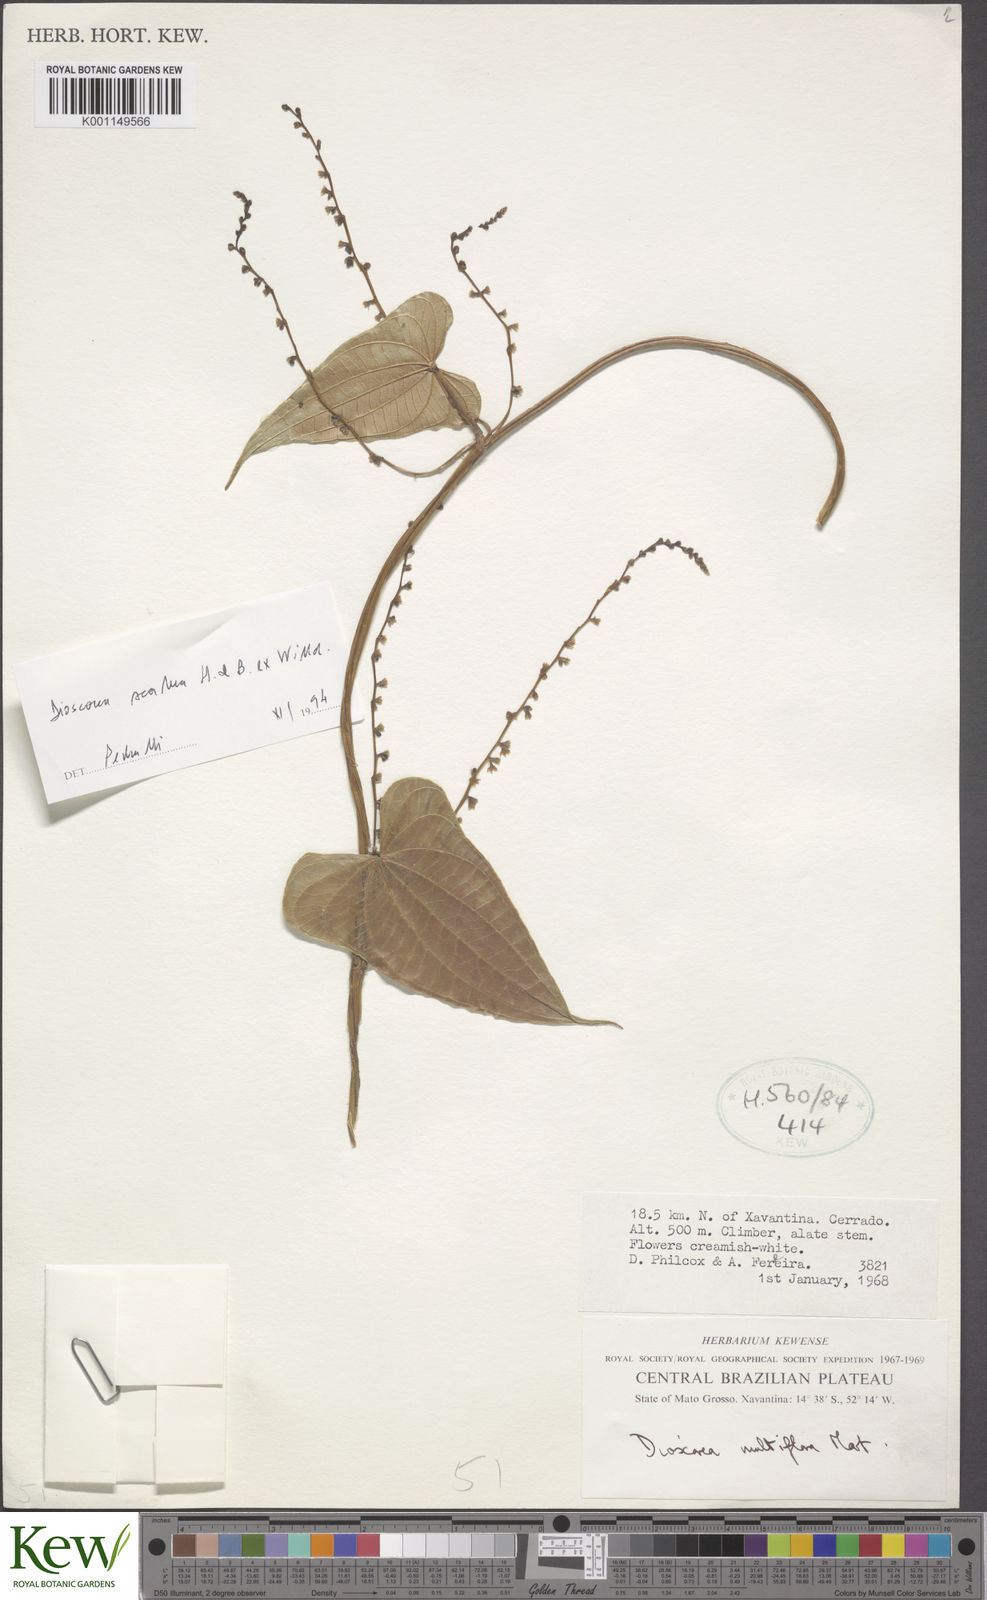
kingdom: Plantae
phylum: Tracheophyta
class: Liliopsida
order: Dioscoreales
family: Dioscoreaceae
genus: Dioscorea
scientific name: Dioscorea multiflora
